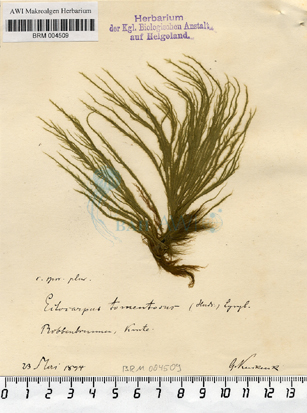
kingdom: Chromista
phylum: Ochrophyta
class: Phaeophyceae
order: Ectocarpales
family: Ectocarpaceae
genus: Spongonema
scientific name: Spongonema tomentosum
